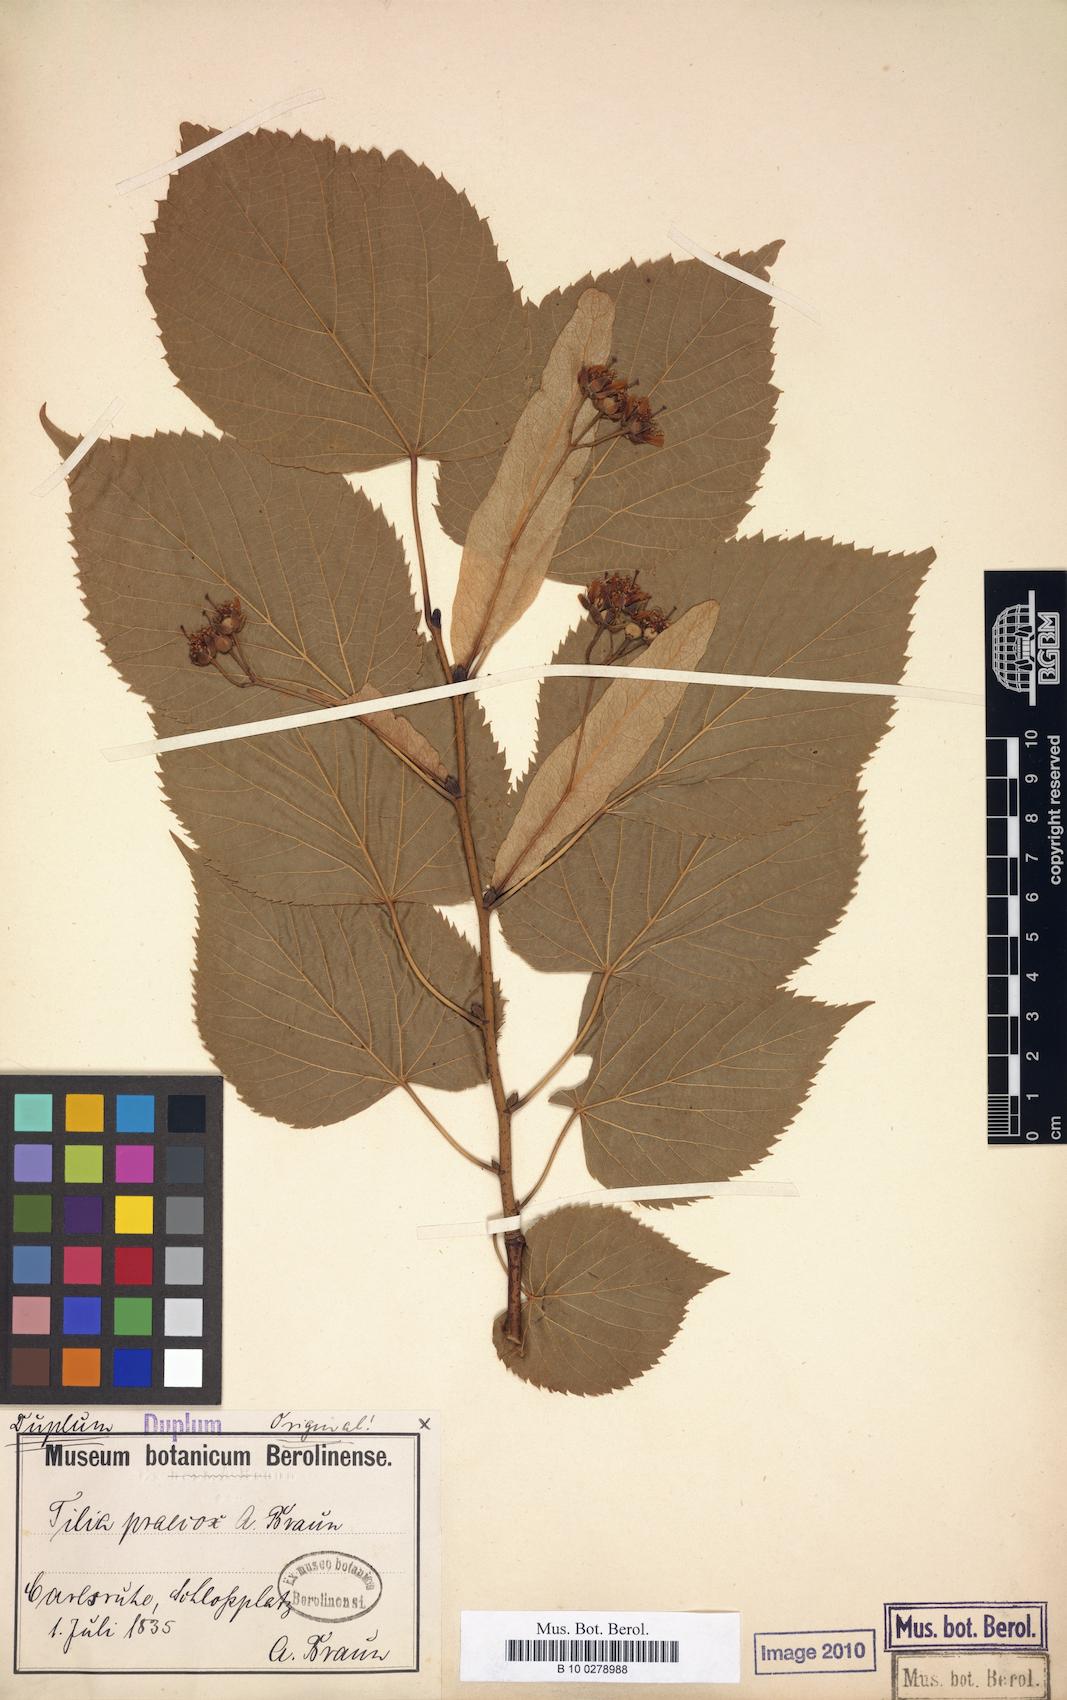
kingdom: Plantae
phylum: Tracheophyta
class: Magnoliopsida
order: Malvales
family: Malvaceae
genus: Tilia
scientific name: Tilia flaccida
